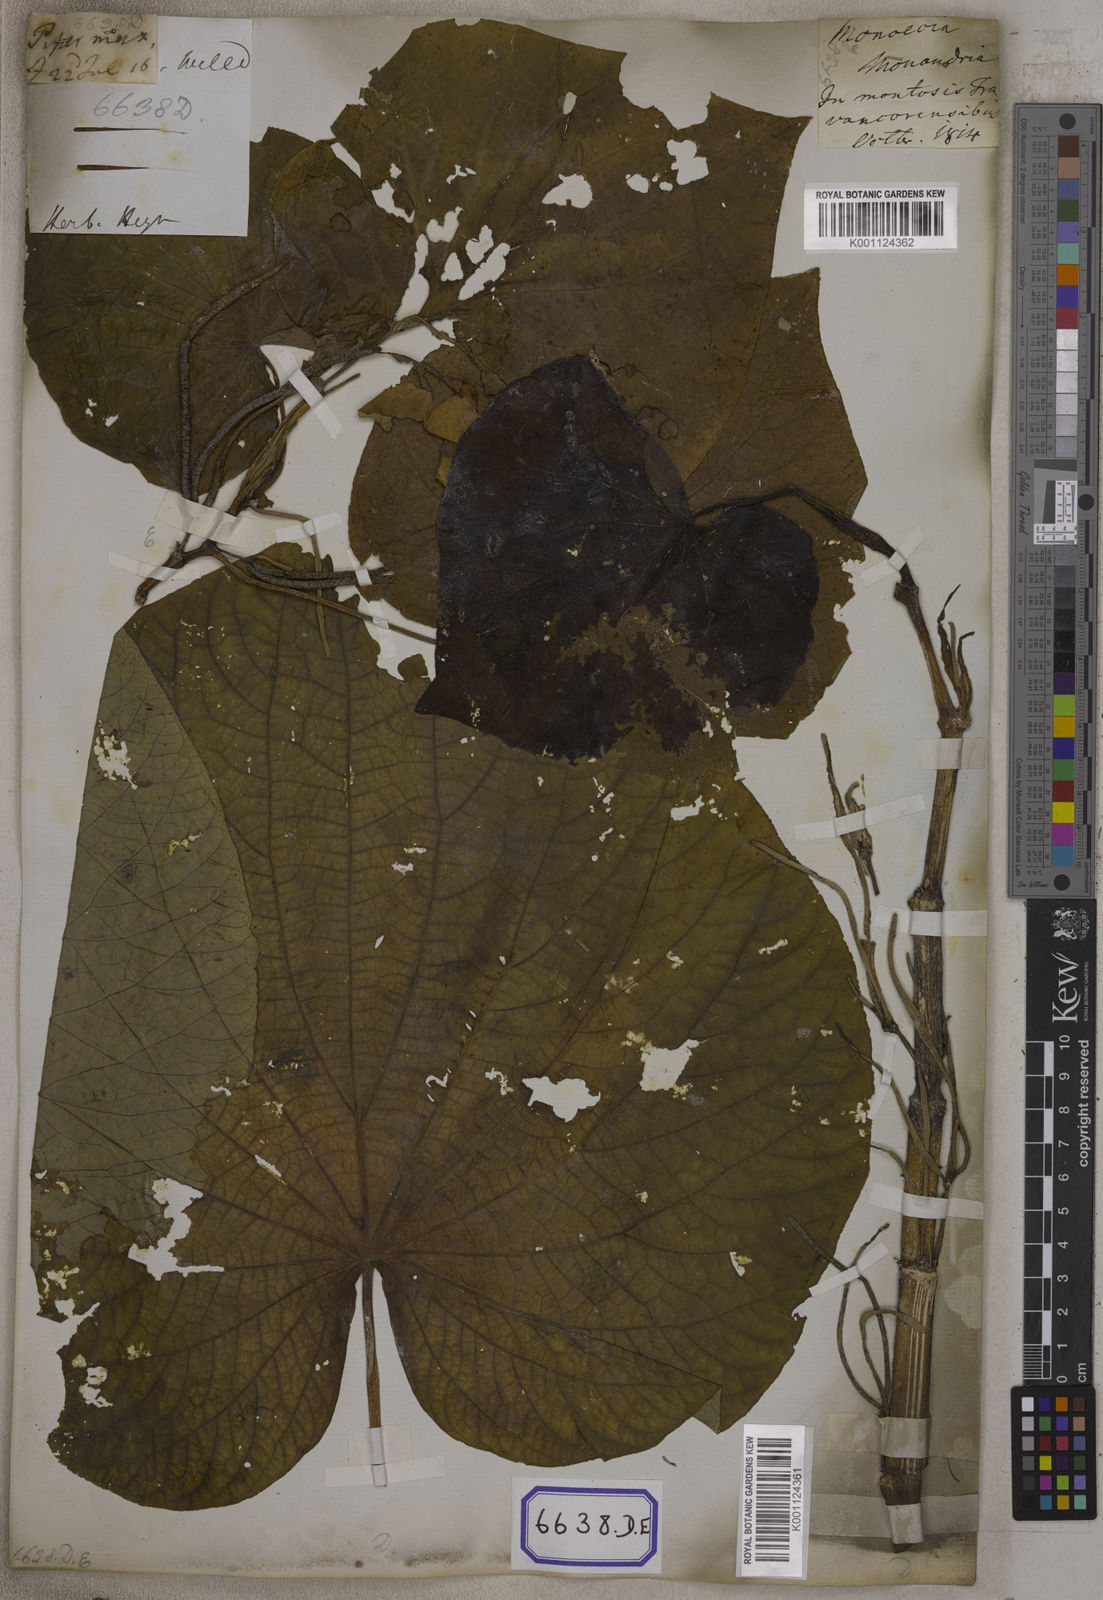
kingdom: Plantae
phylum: Tracheophyta
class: Magnoliopsida
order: Piperales
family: Piperaceae
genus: Piper
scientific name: Piper umbellatum
